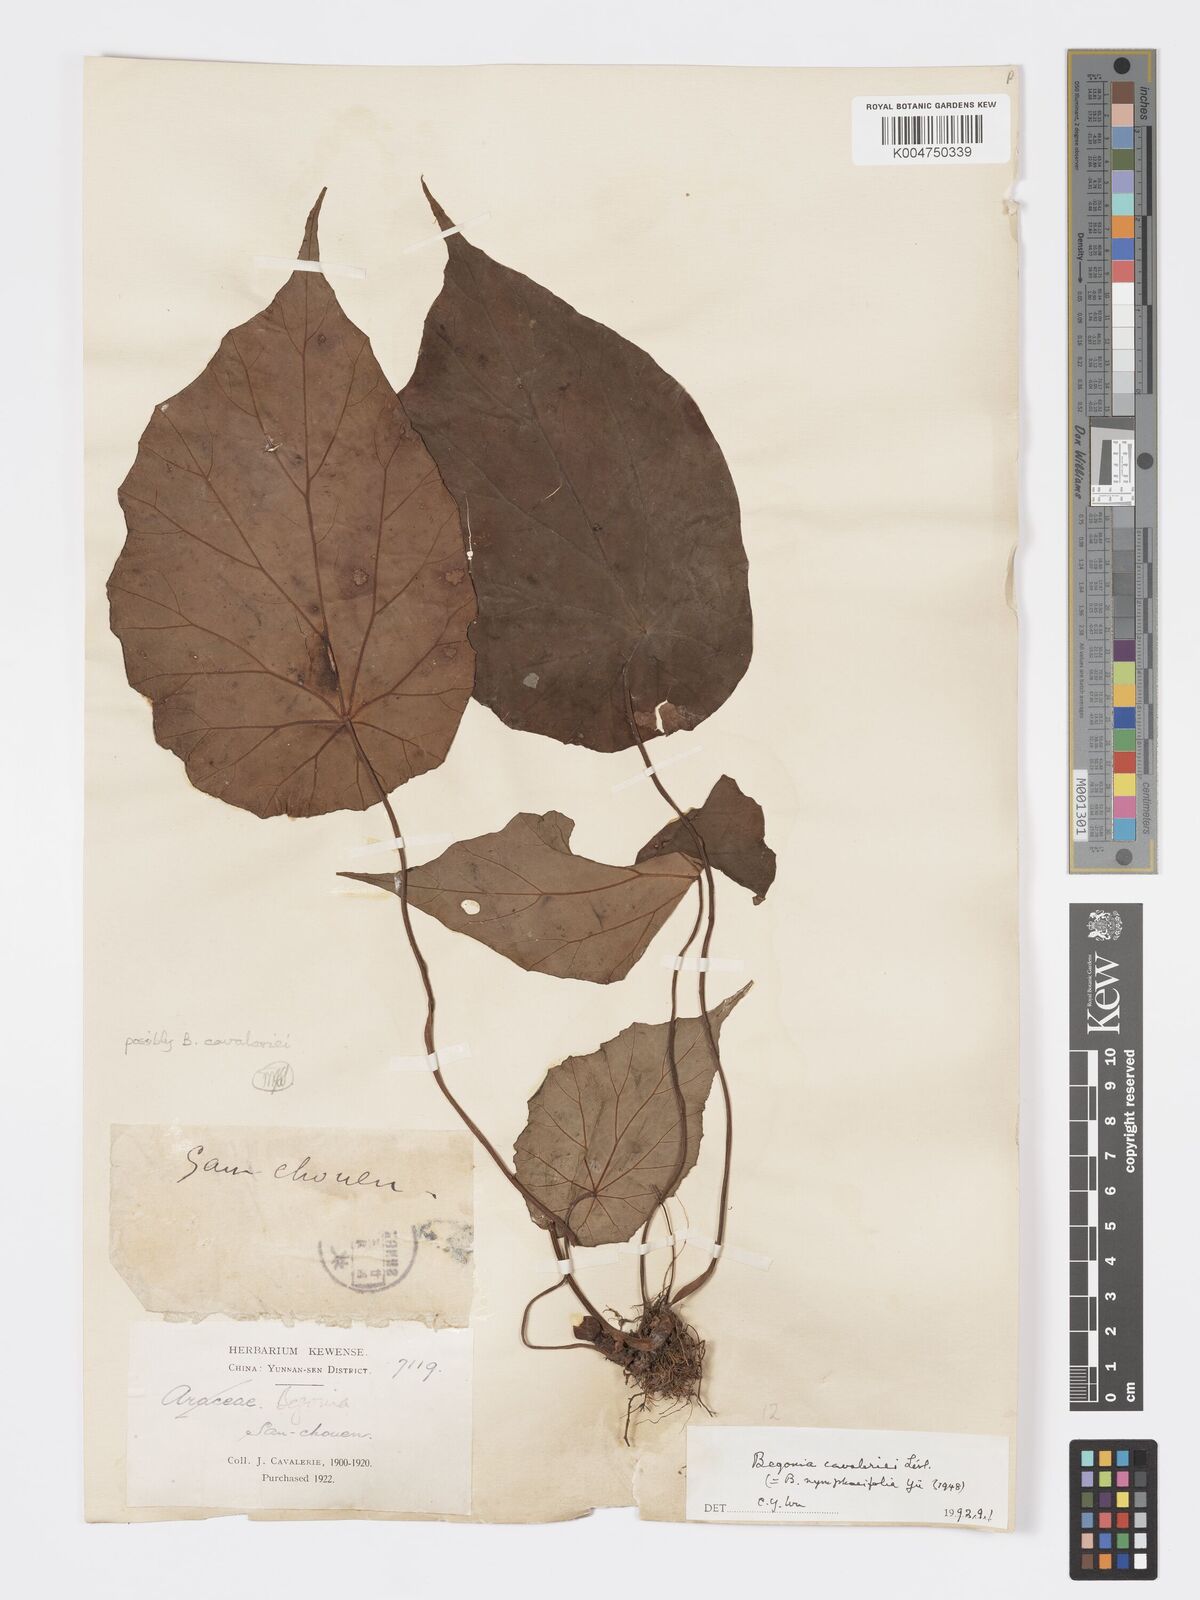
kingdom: Plantae
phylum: Tracheophyta
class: Magnoliopsida
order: Cucurbitales
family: Begoniaceae
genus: Begonia
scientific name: Begonia cavaleriei
